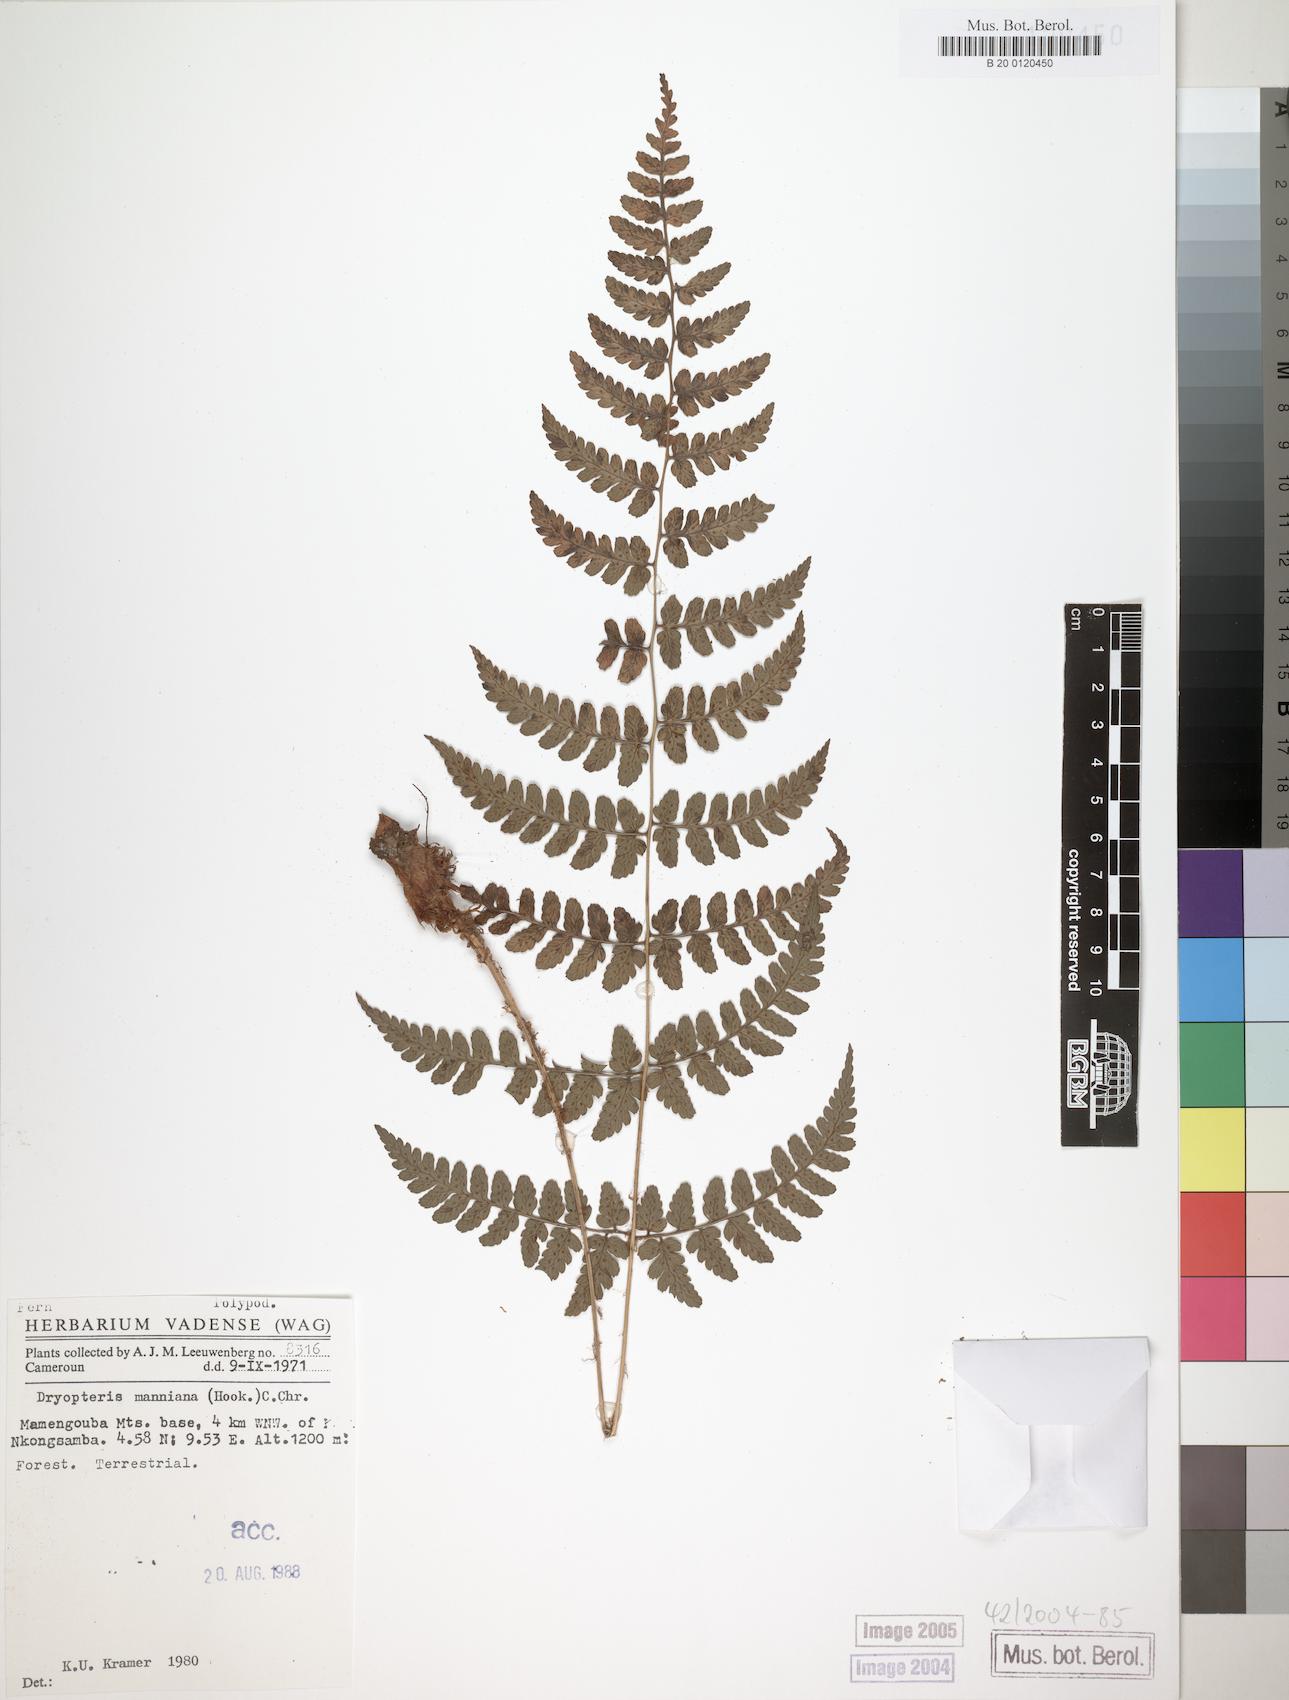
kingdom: Plantae
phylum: Tracheophyta
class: Polypodiopsida
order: Polypodiales
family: Dryopteridaceae
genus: Dryopteris
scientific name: Dryopteris manniana
